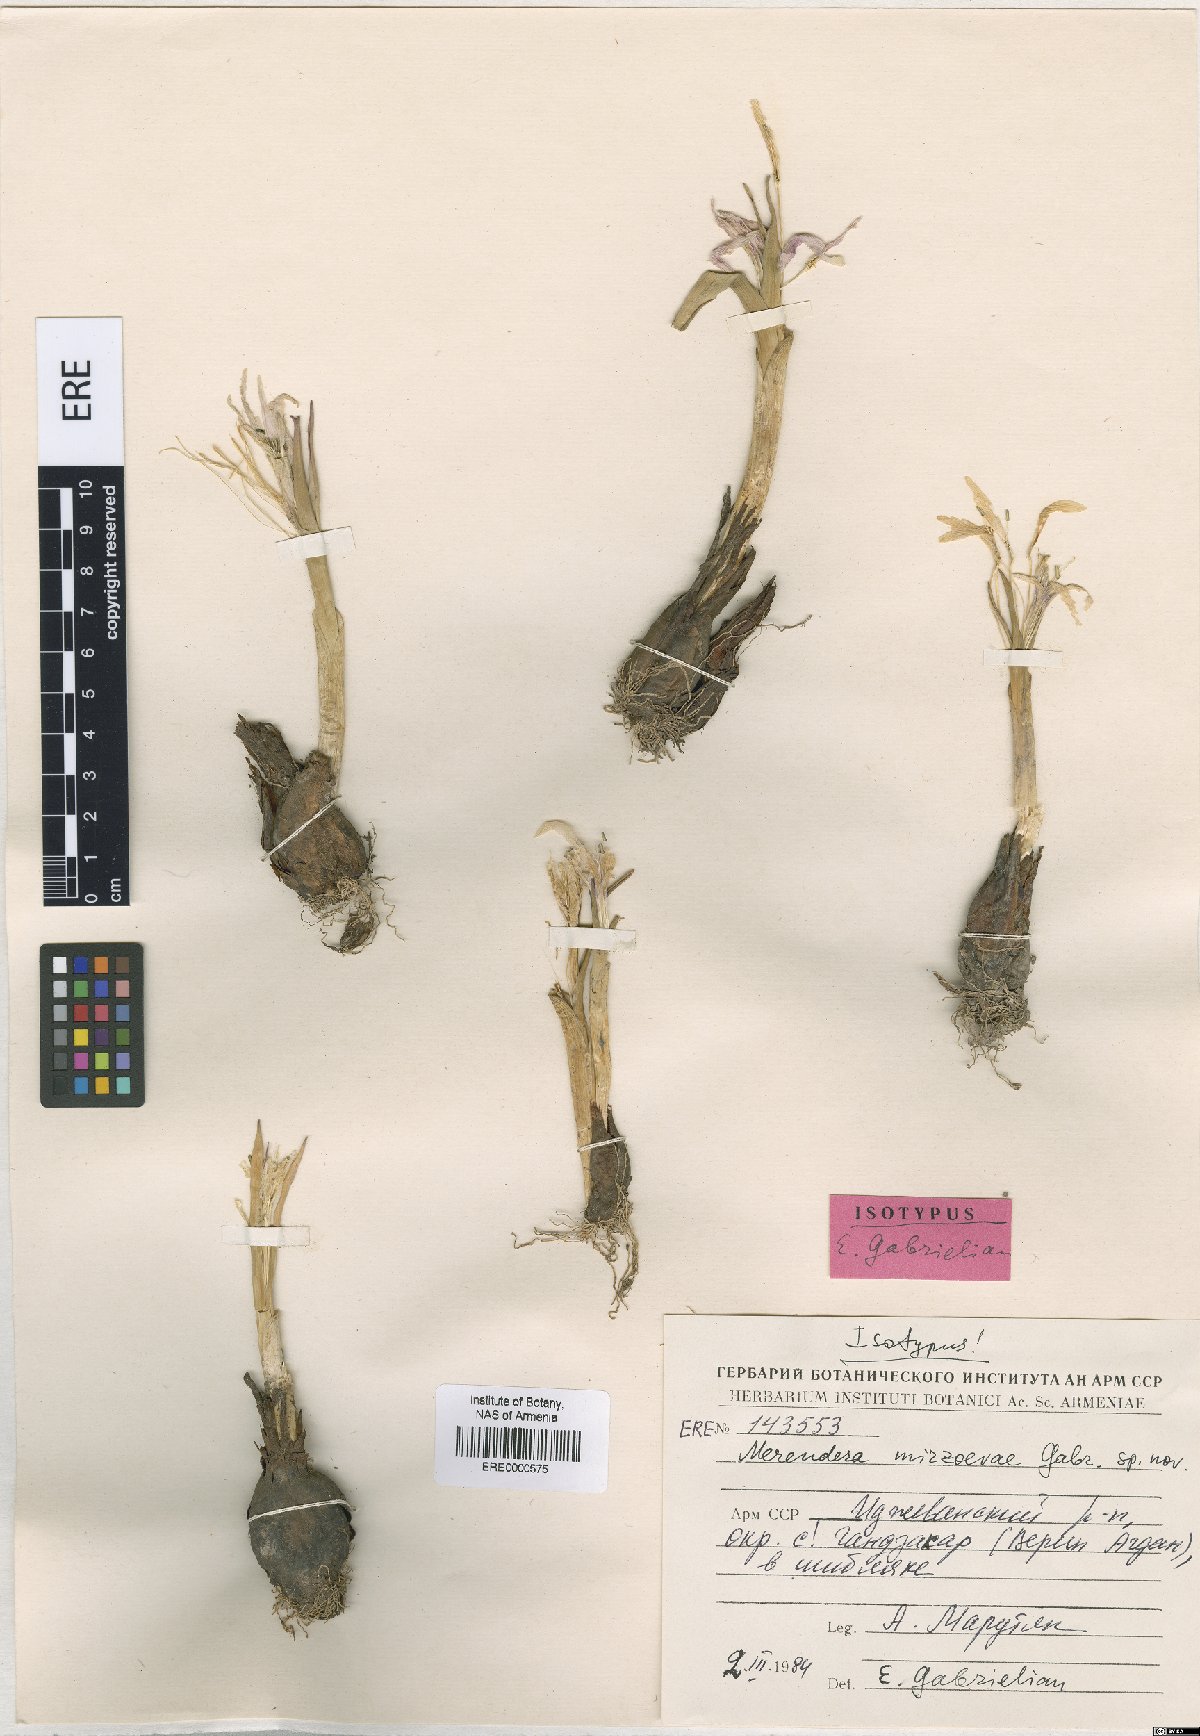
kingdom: Plantae
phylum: Tracheophyta
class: Liliopsida
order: Liliales
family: Colchicaceae
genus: Colchicum
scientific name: Colchicum trigynum
